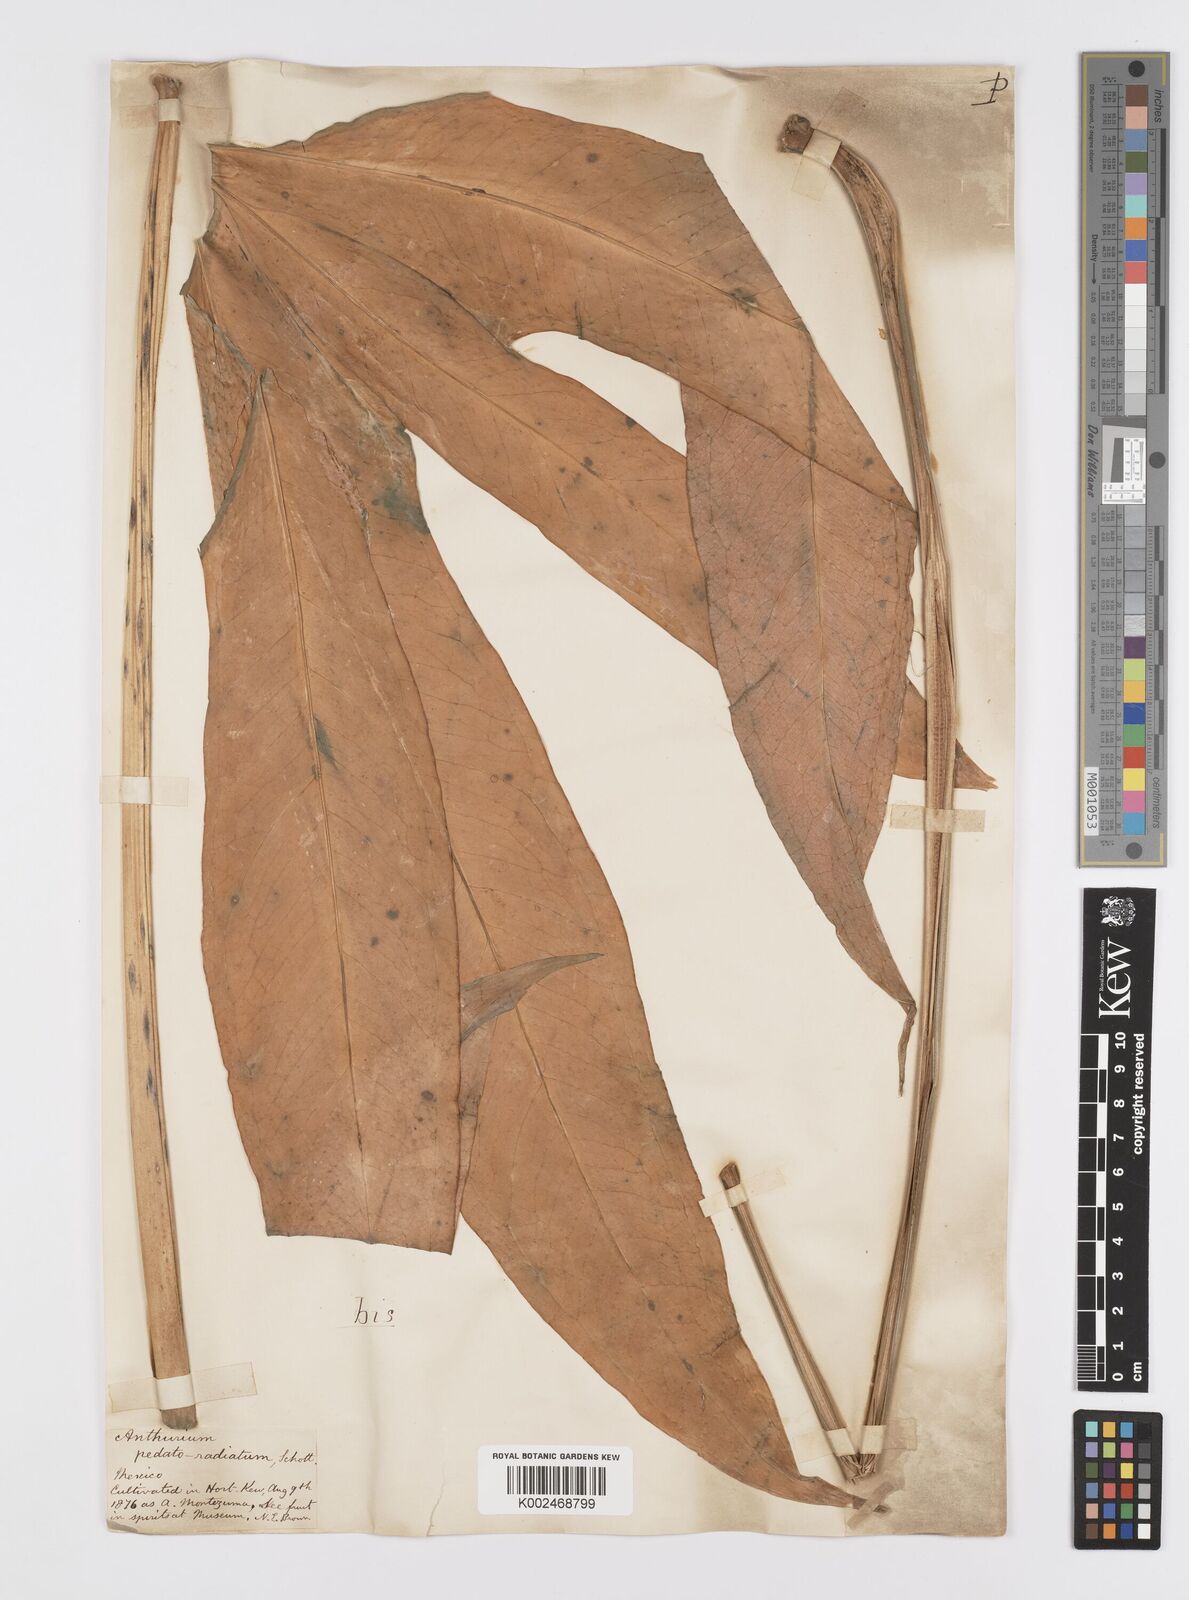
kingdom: Plantae
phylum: Tracheophyta
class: Liliopsida
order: Alismatales
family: Araceae
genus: Anthurium
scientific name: Anthurium pedatoradiatum
